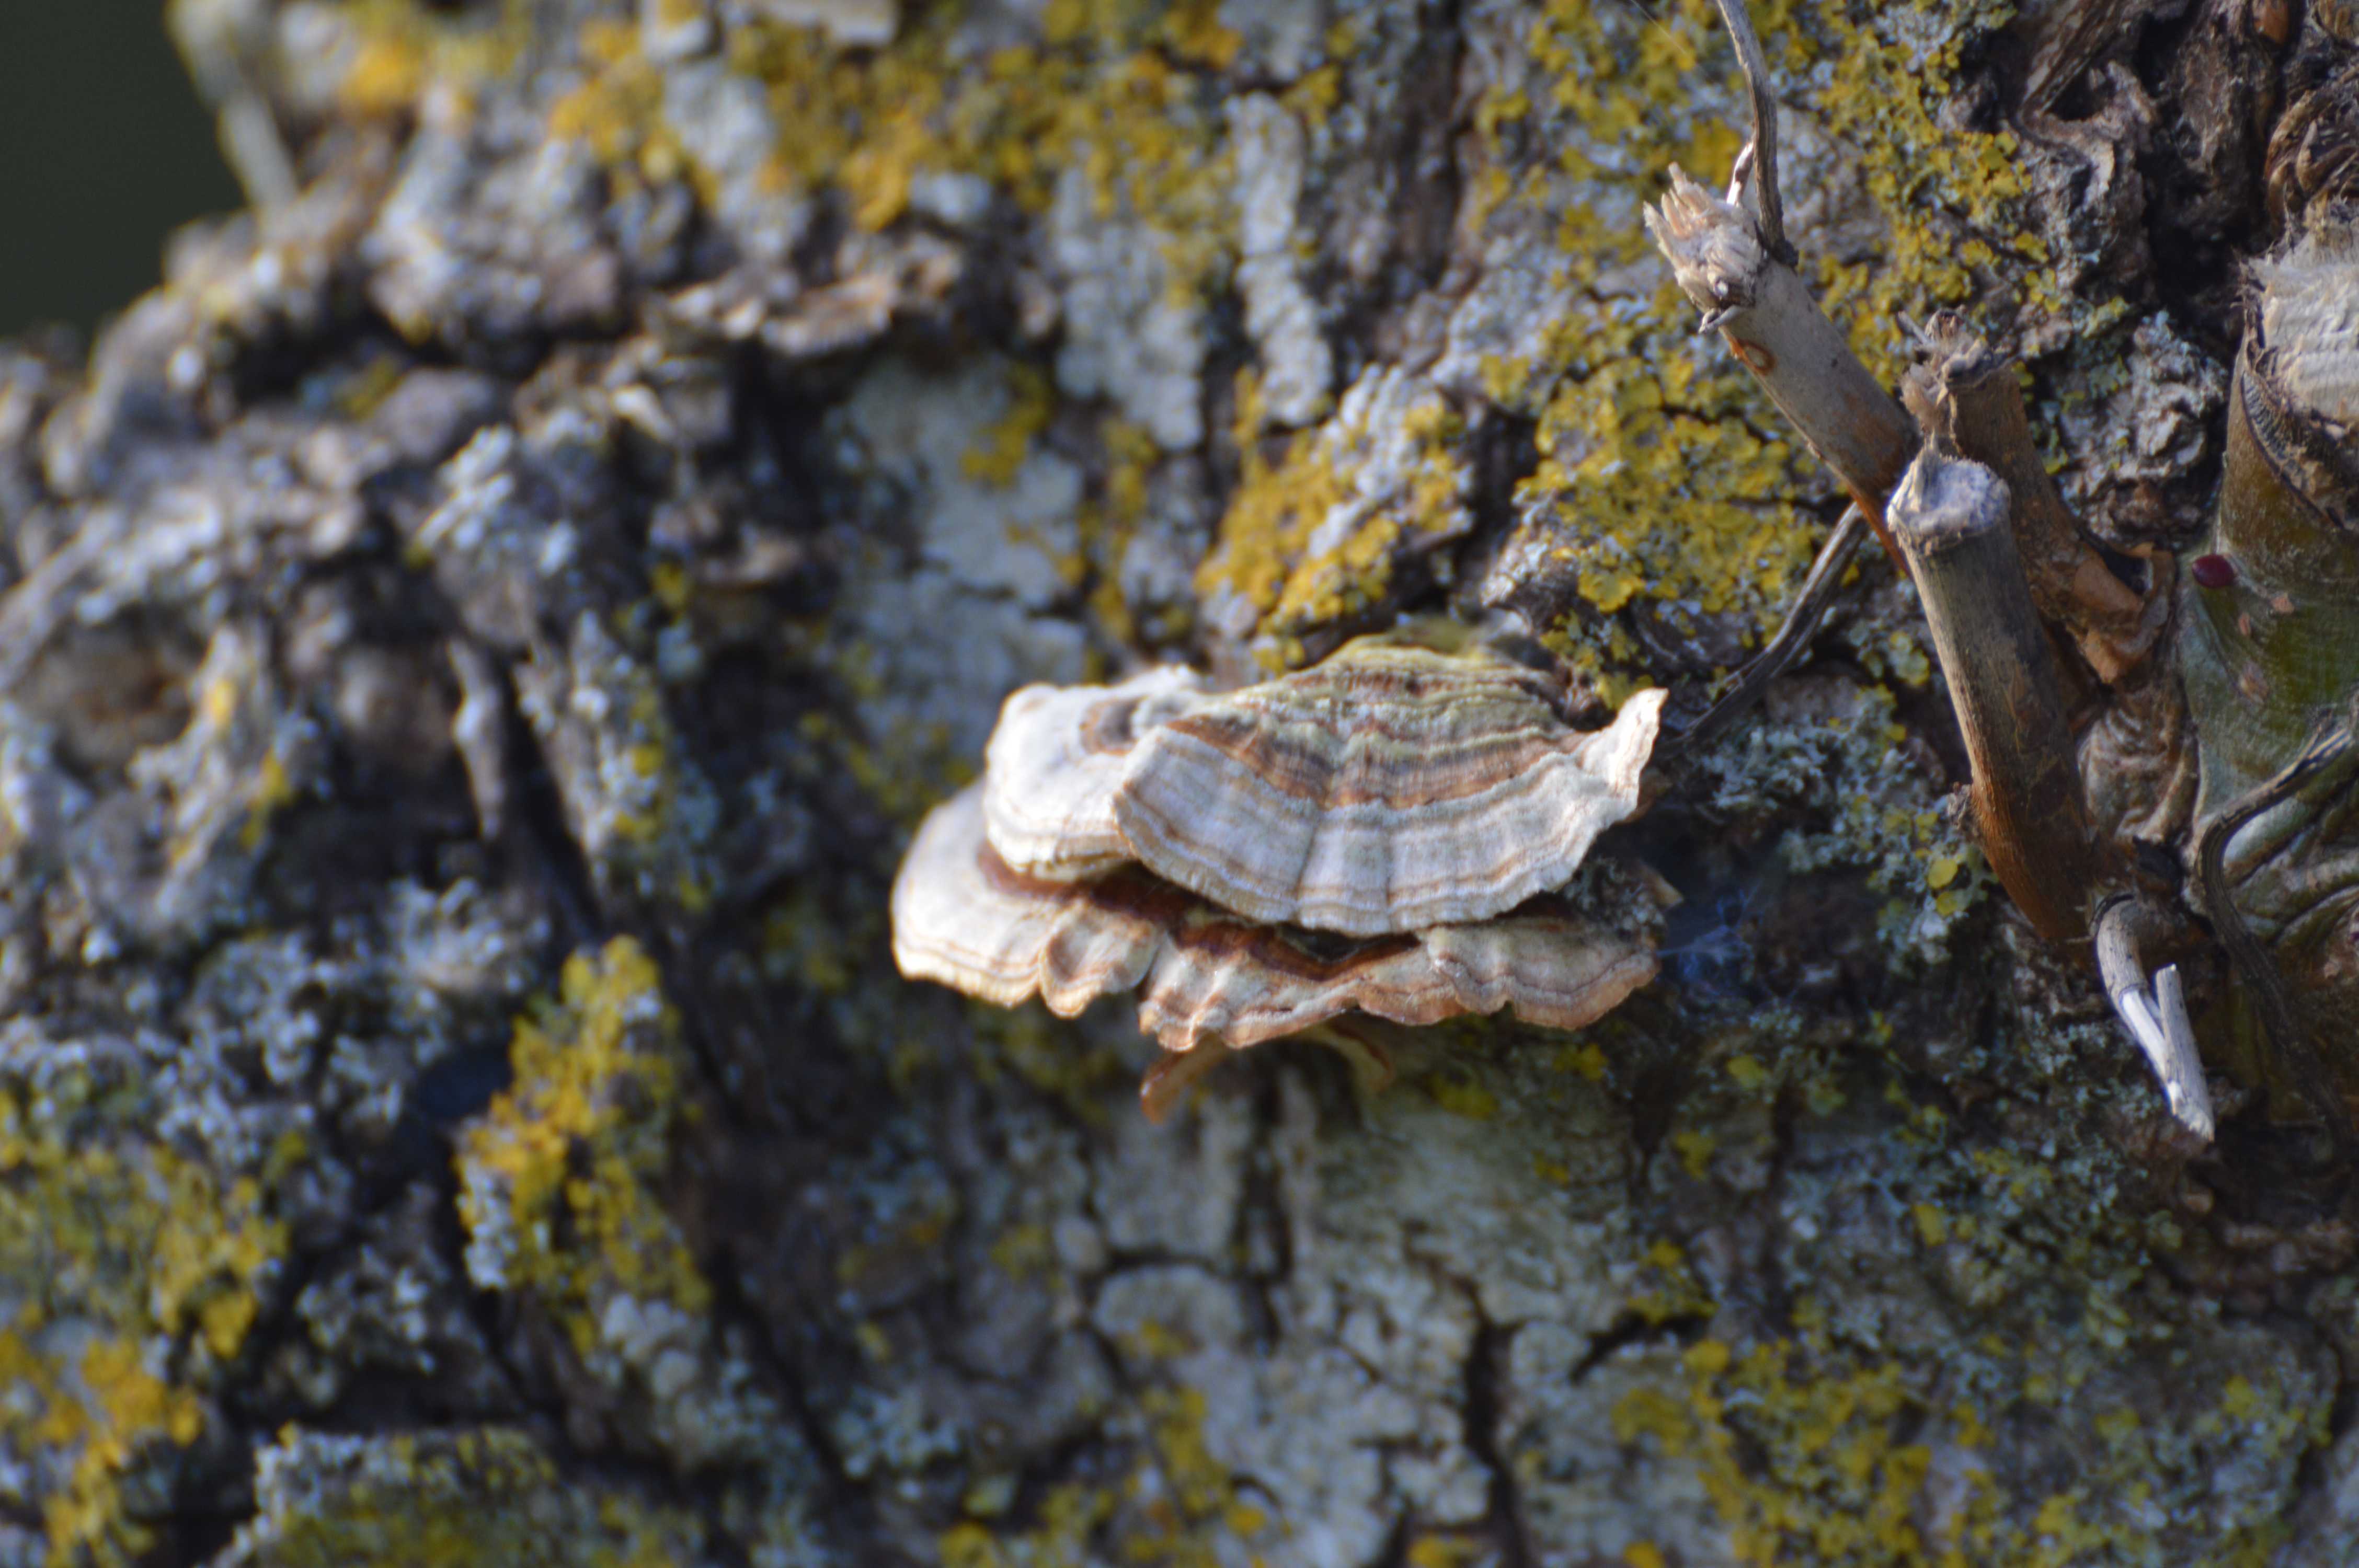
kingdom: Fungi
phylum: Basidiomycota
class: Agaricomycetes
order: Polyporales
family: Polyporaceae
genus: Trametes
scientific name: Trametes versicolor
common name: broget læderporesvamp
